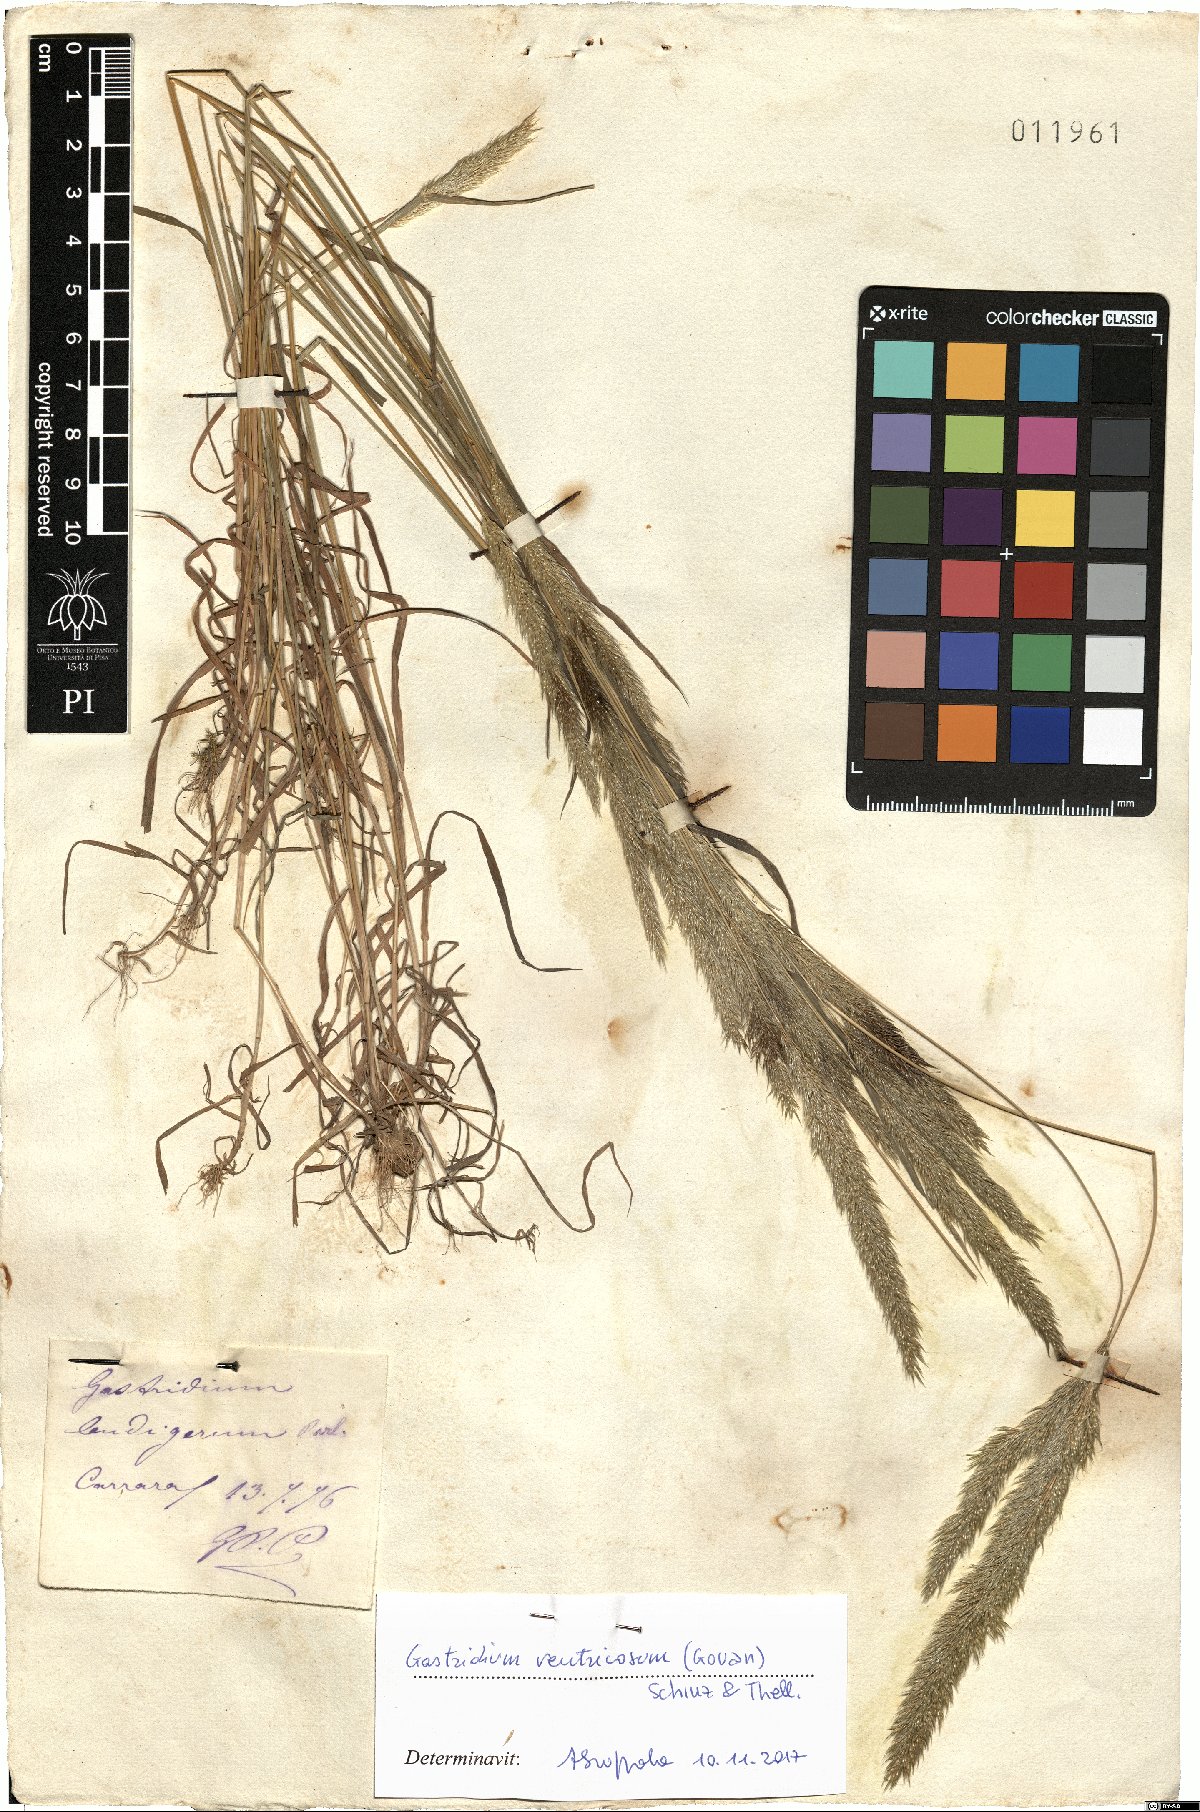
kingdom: Plantae
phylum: Tracheophyta
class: Liliopsida
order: Poales
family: Poaceae
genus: Gastridium
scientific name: Gastridium ventricosum
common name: Nit-grass
